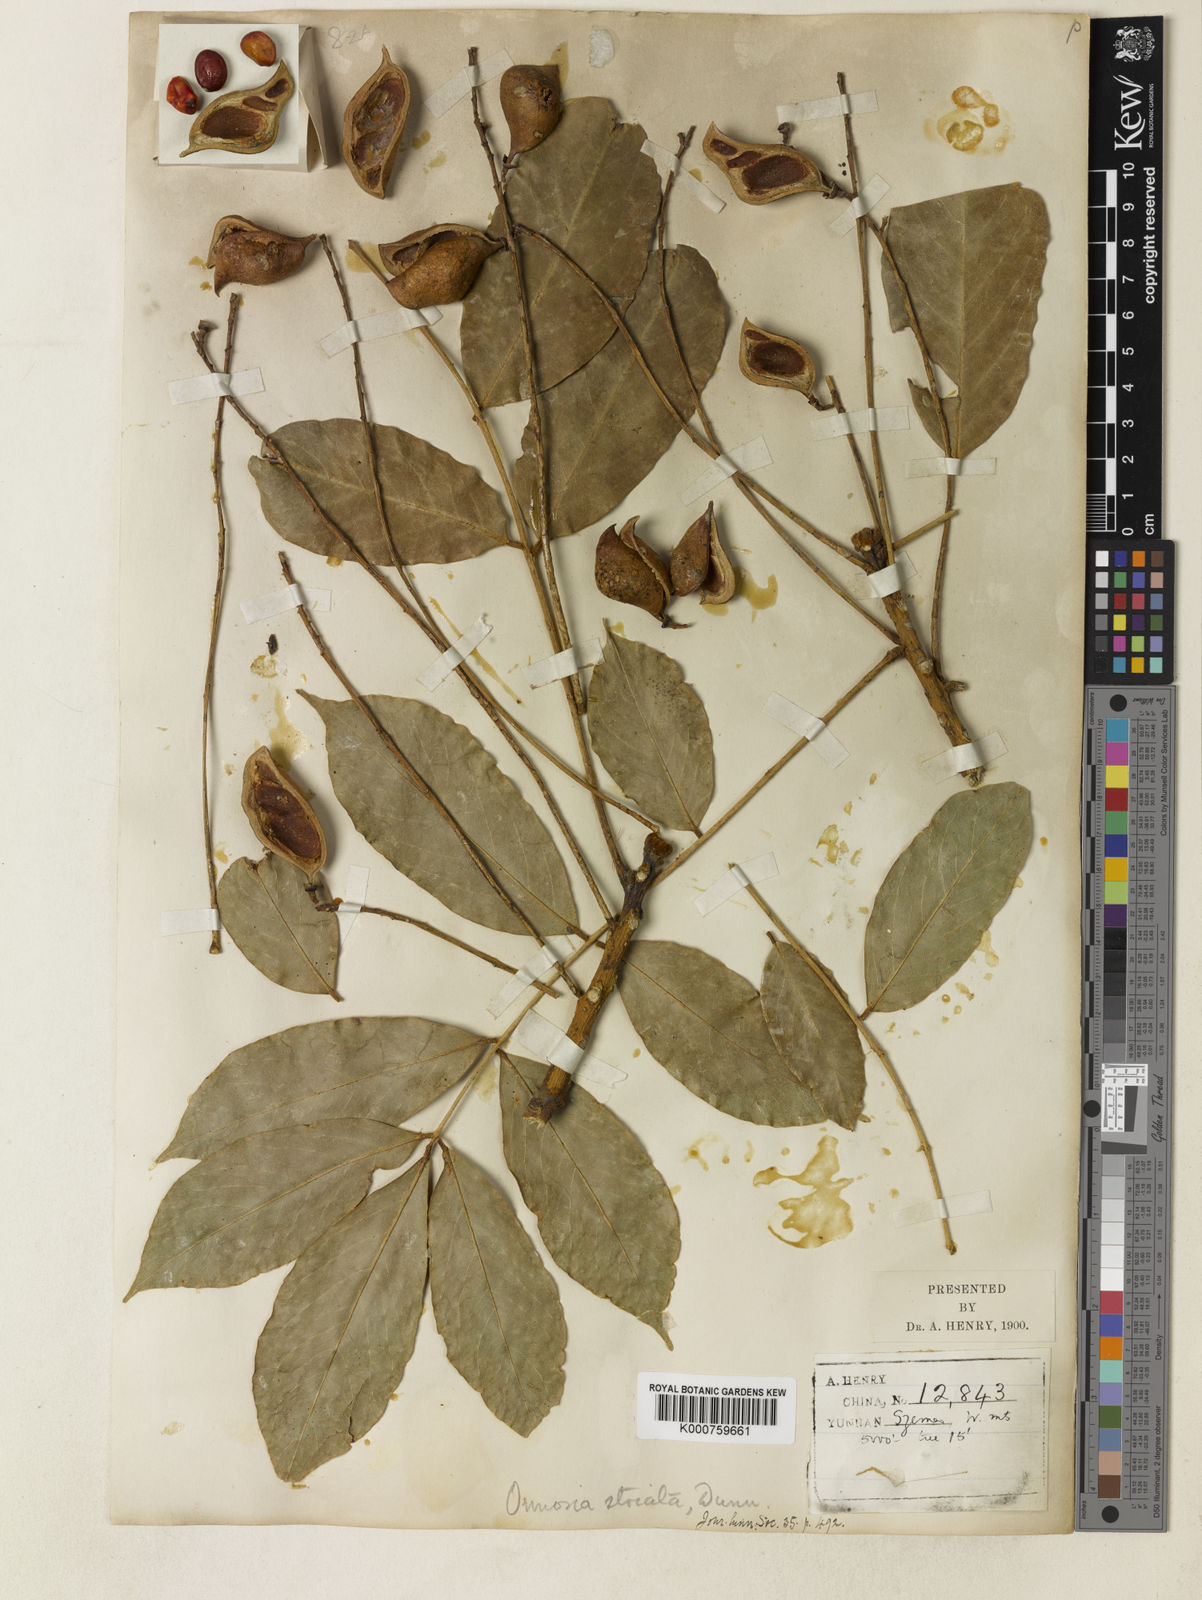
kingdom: Plantae
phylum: Tracheophyta
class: Magnoliopsida
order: Fabales
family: Fabaceae
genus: Ormosia
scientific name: Ormosia striata
